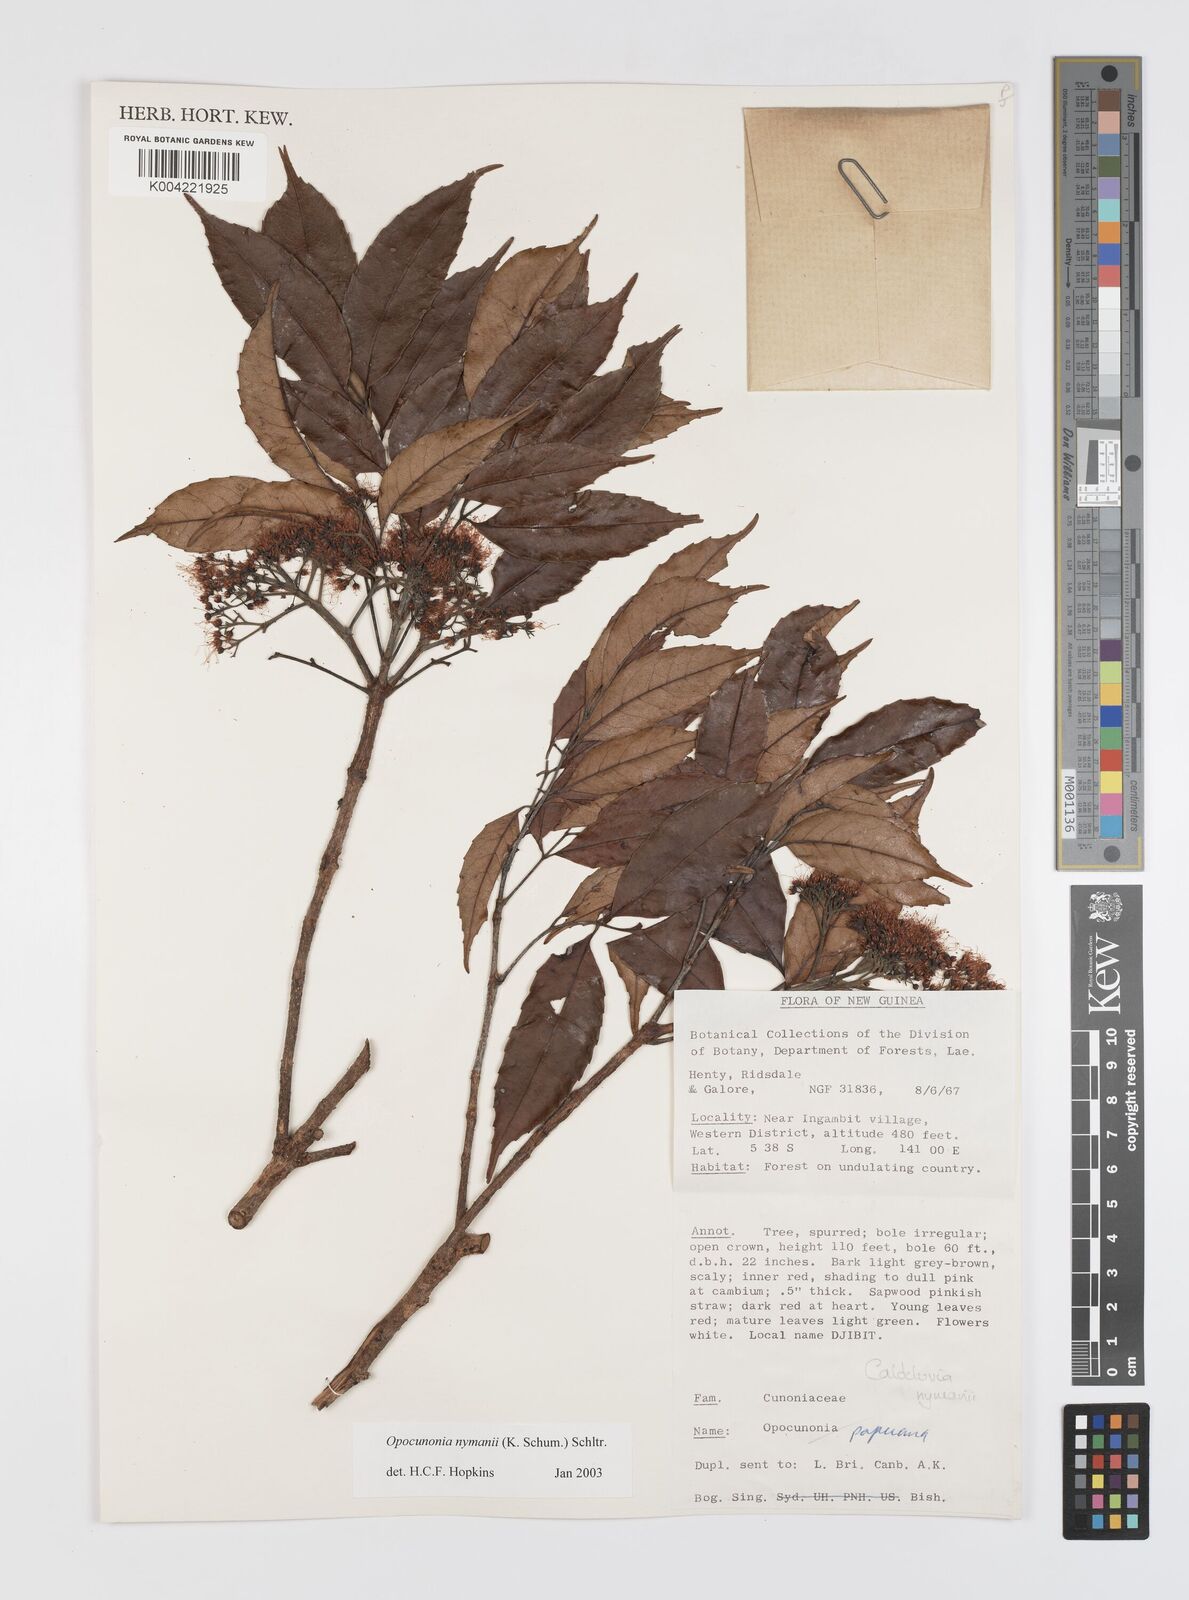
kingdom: Plantae
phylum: Tracheophyta
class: Magnoliopsida
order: Oxalidales
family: Cunoniaceae
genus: Opocunonia
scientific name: Opocunonia nymanii
